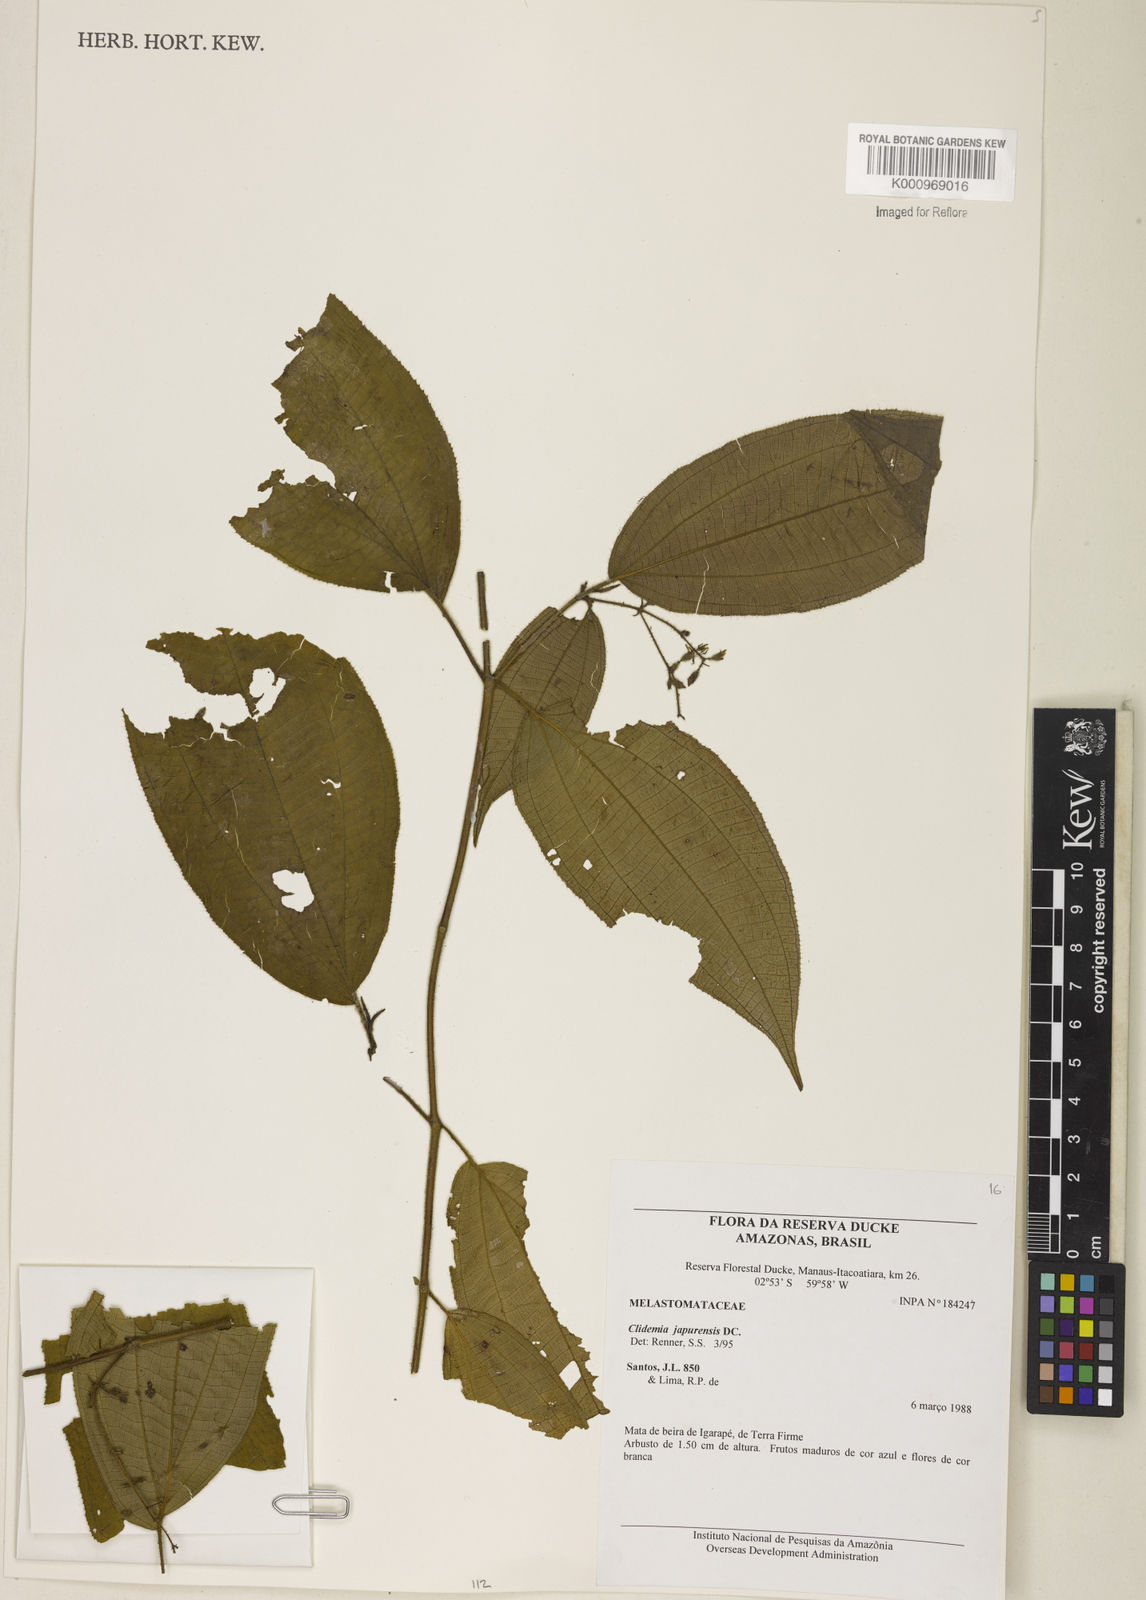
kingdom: Plantae
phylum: Tracheophyta
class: Magnoliopsida
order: Myrtales
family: Melastomataceae
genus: Miconia
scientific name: Miconia heteroclita
